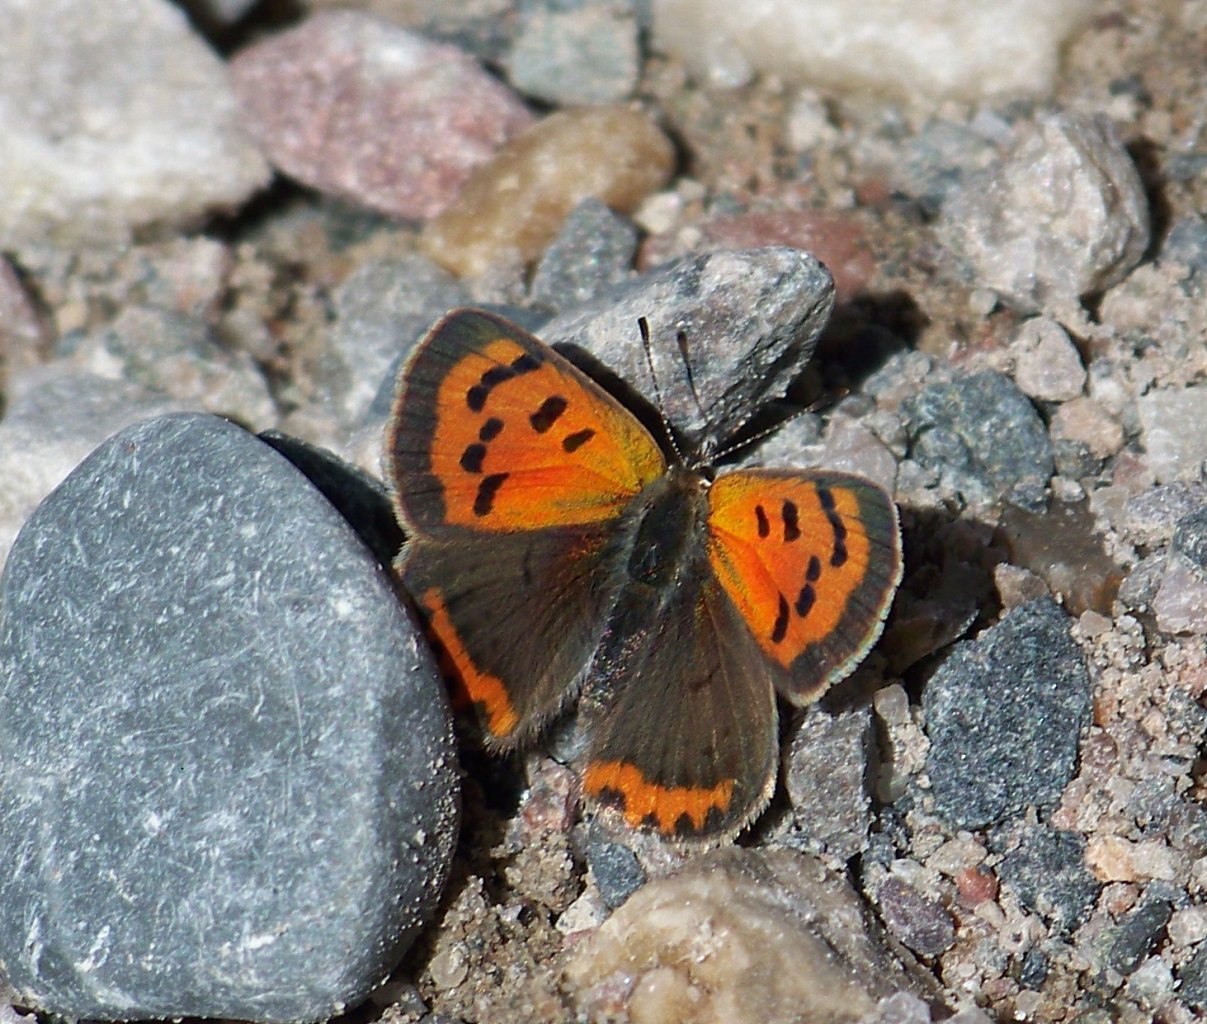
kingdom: Animalia
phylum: Arthropoda
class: Insecta
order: Lepidoptera
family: Lycaenidae
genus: Lycaena
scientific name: Lycaena phlaeas
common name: American Copper
